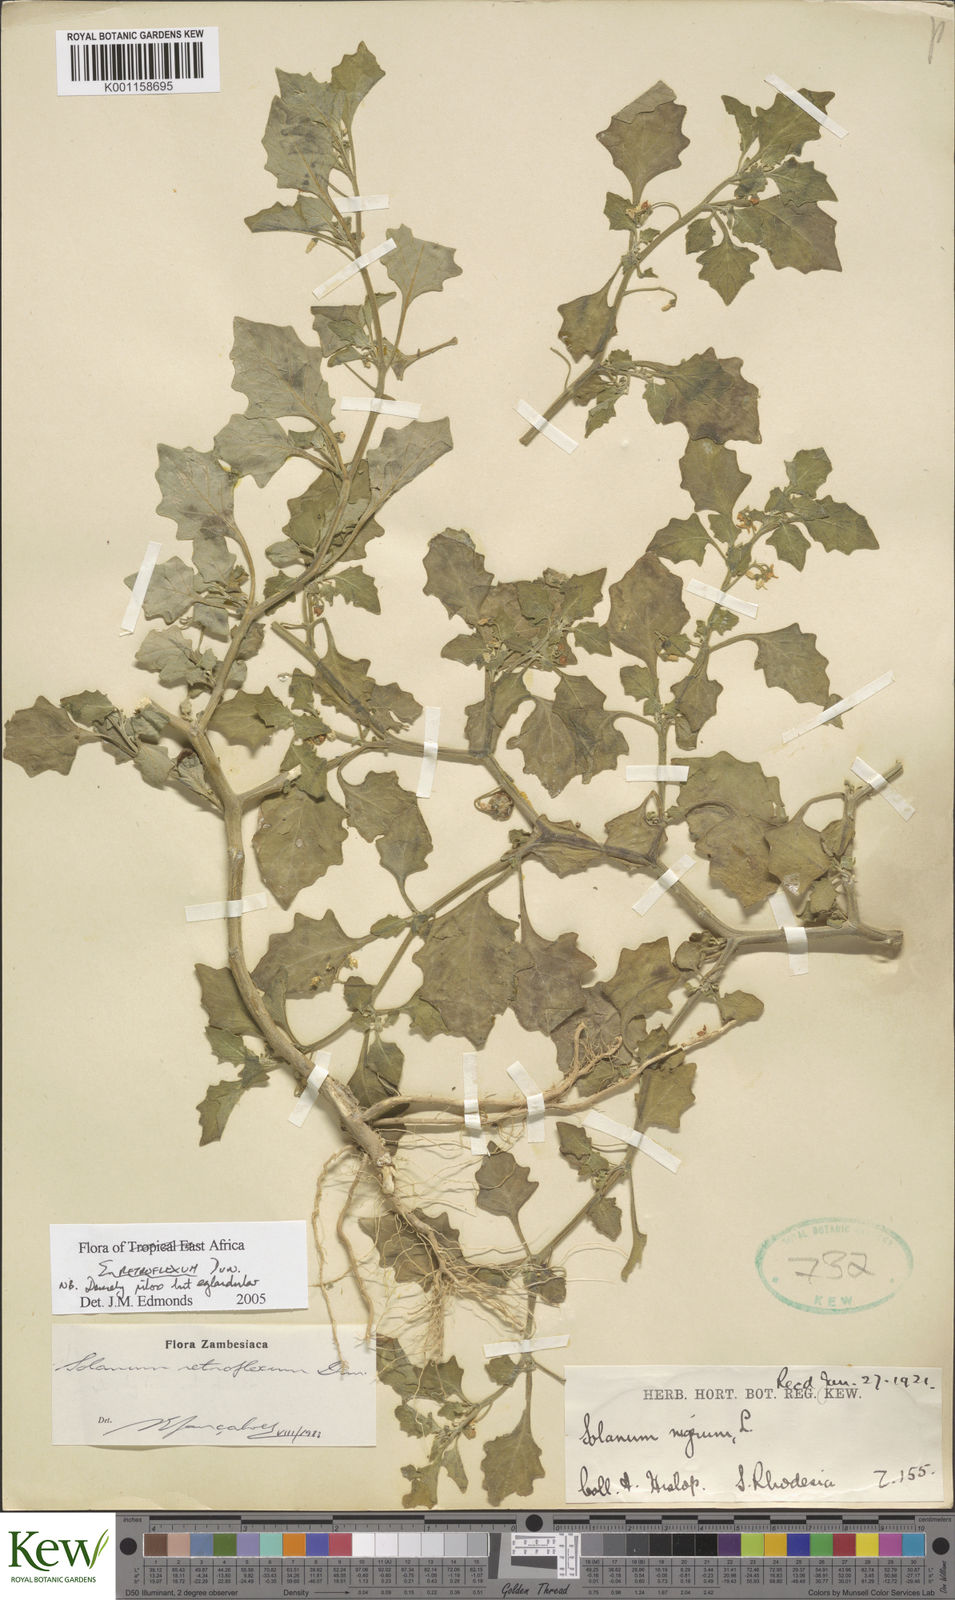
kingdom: Plantae
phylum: Tracheophyta
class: Magnoliopsida
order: Solanales
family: Solanaceae
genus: Solanum
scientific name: Solanum retroflexum
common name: Wonderberry
